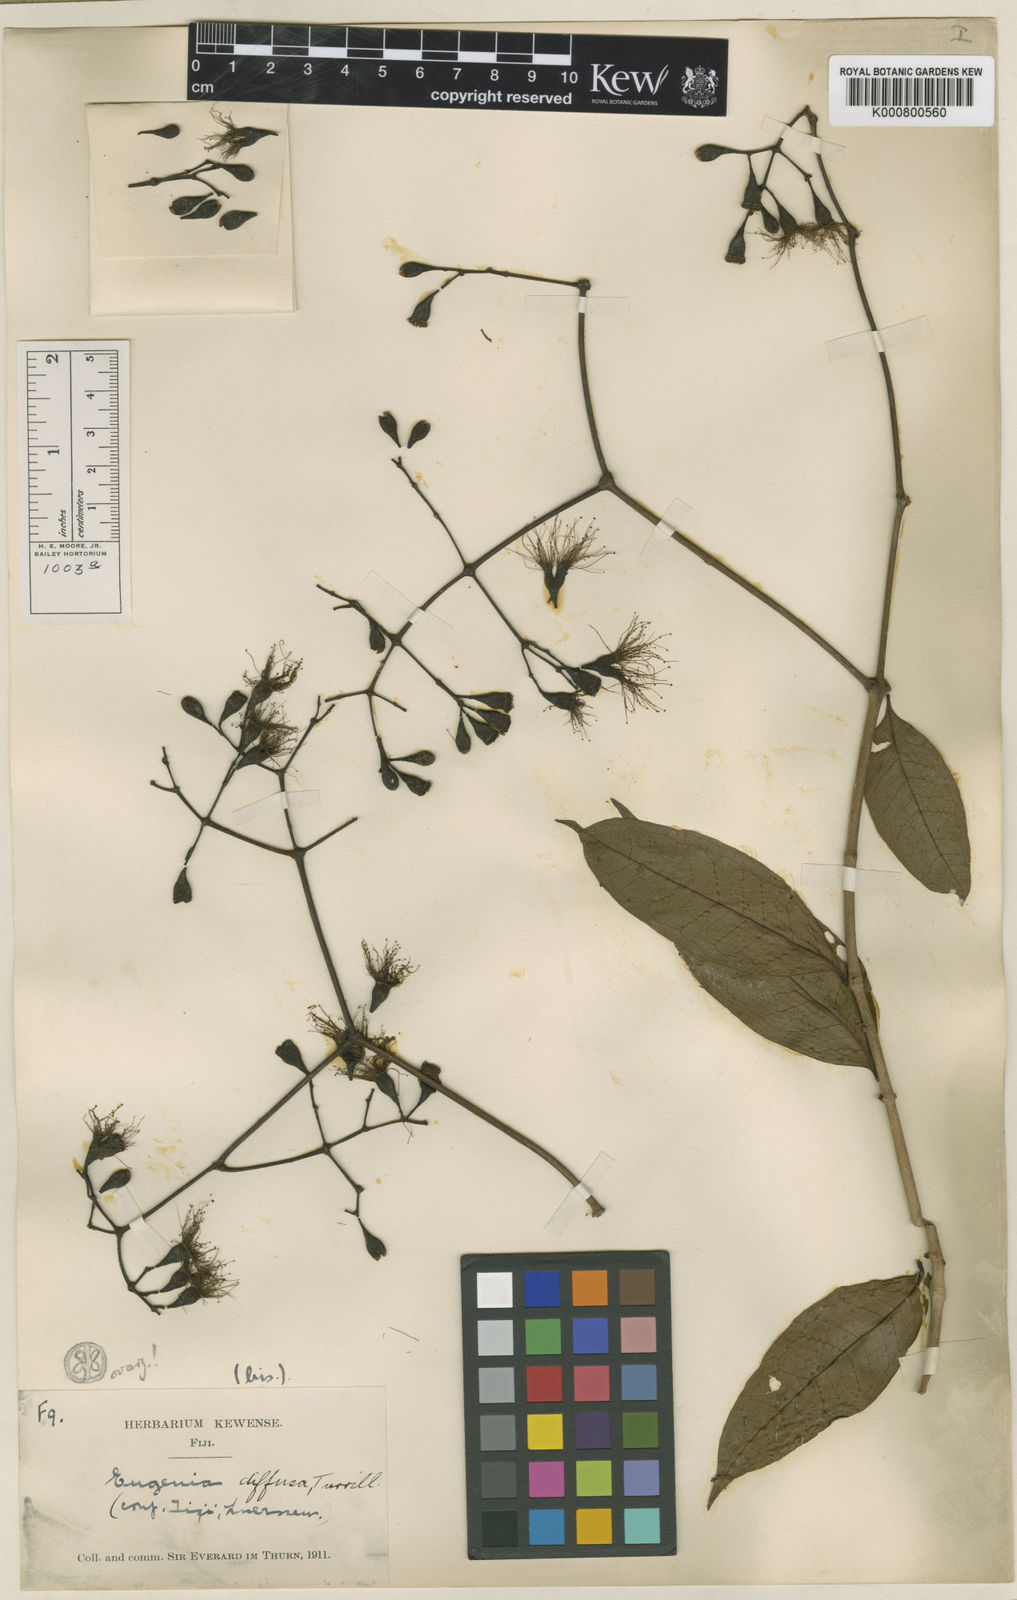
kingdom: Plantae
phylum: Tracheophyta
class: Magnoliopsida
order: Myrtales
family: Myrtaceae
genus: Syzygium
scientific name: Syzygium diffusum
